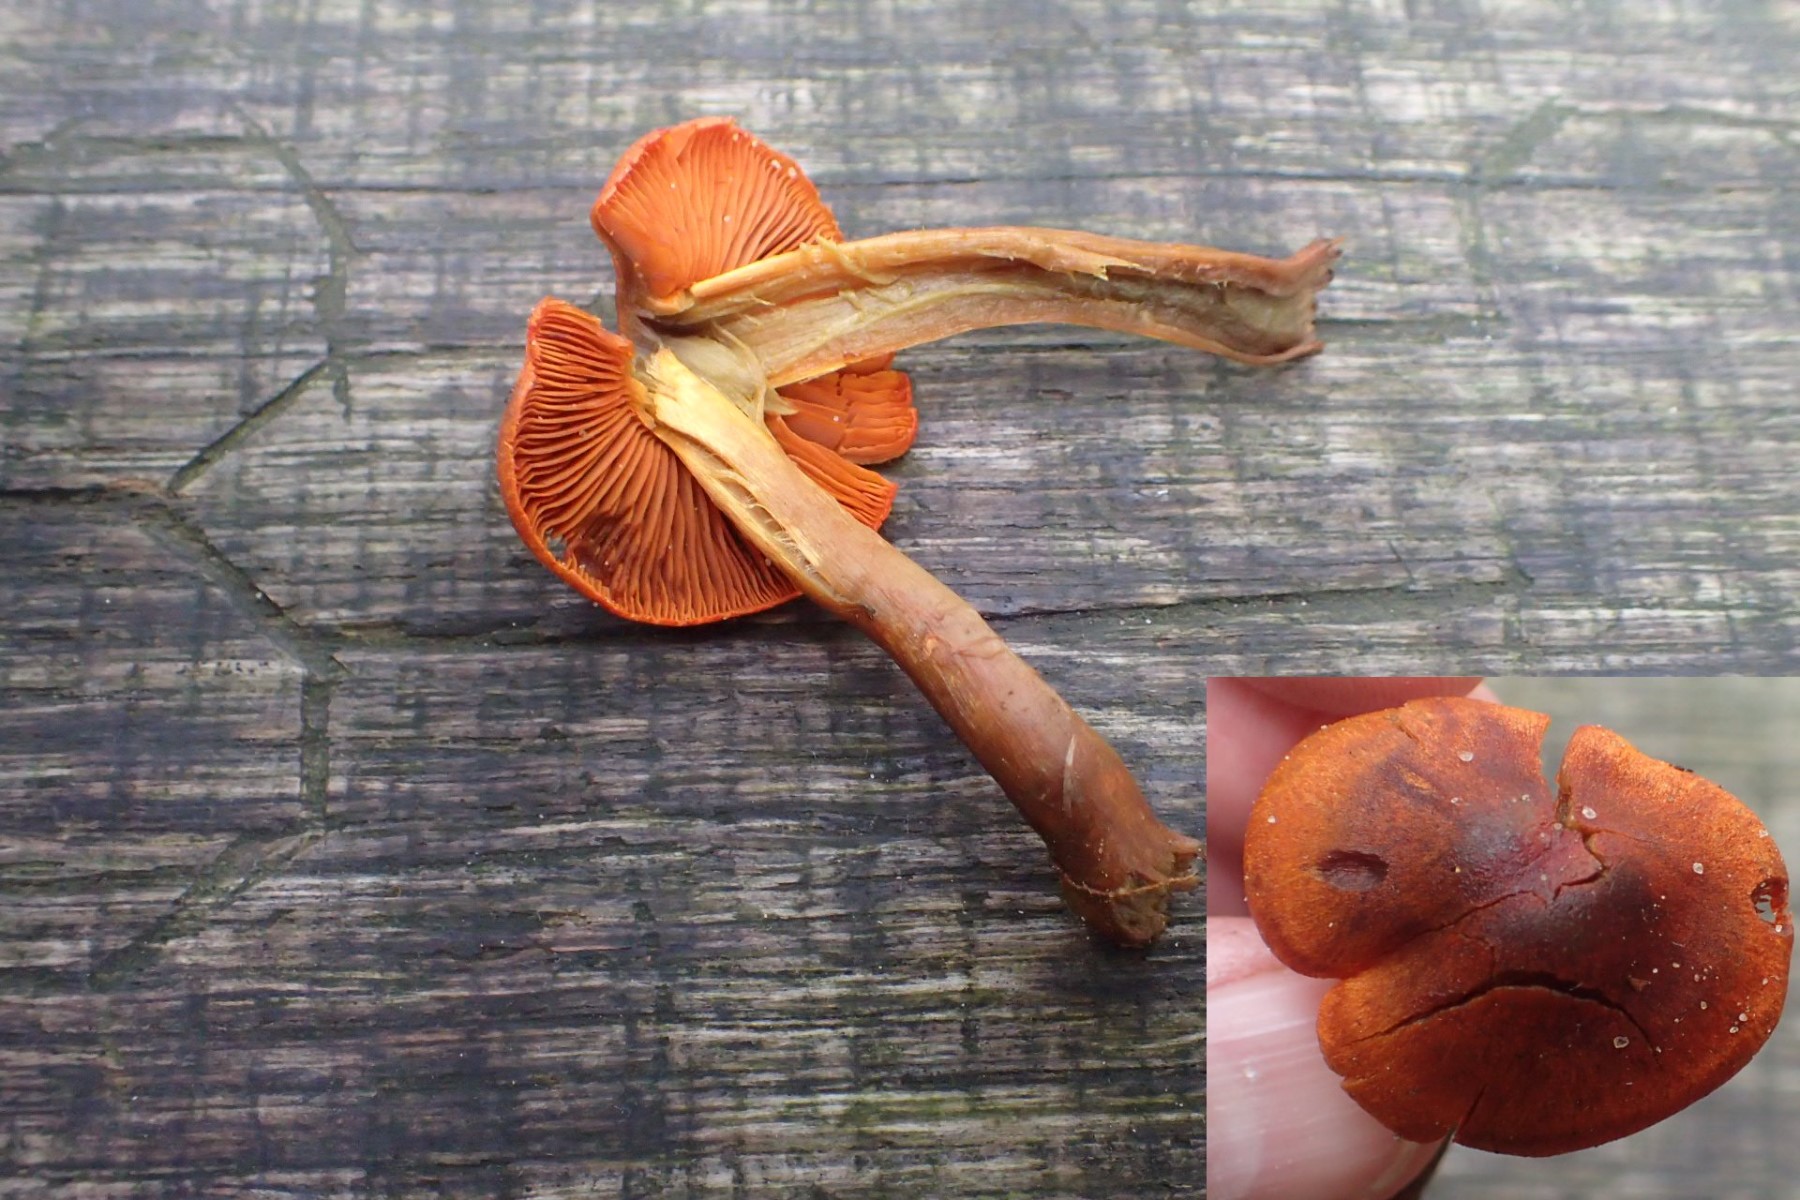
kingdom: Fungi
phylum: Basidiomycota
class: Agaricomycetes
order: Agaricales
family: Cortinariaceae
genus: Cortinarius
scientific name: Cortinarius malicorius
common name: grønkødet slørhat
